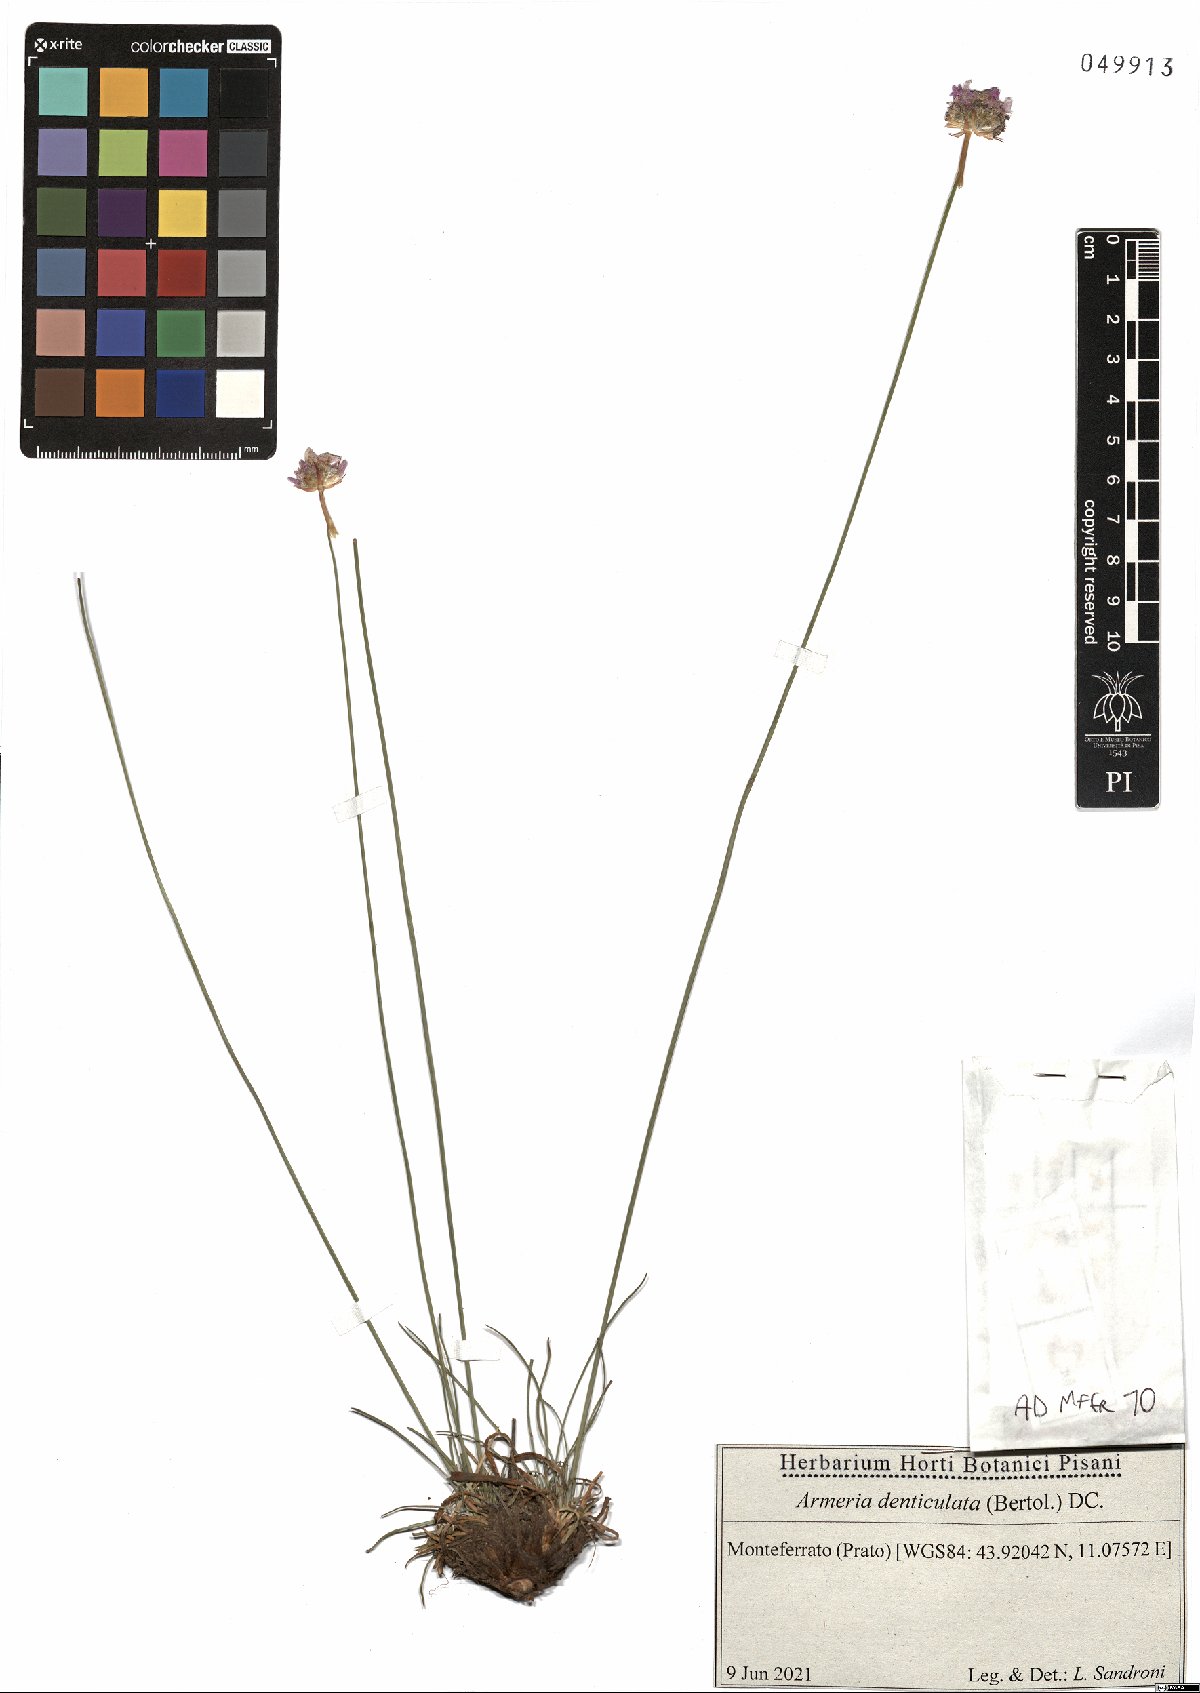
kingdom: Plantae
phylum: Tracheophyta
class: Magnoliopsida
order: Caryophyllales
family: Plumbaginaceae
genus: Armeria
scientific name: Armeria denticulata
